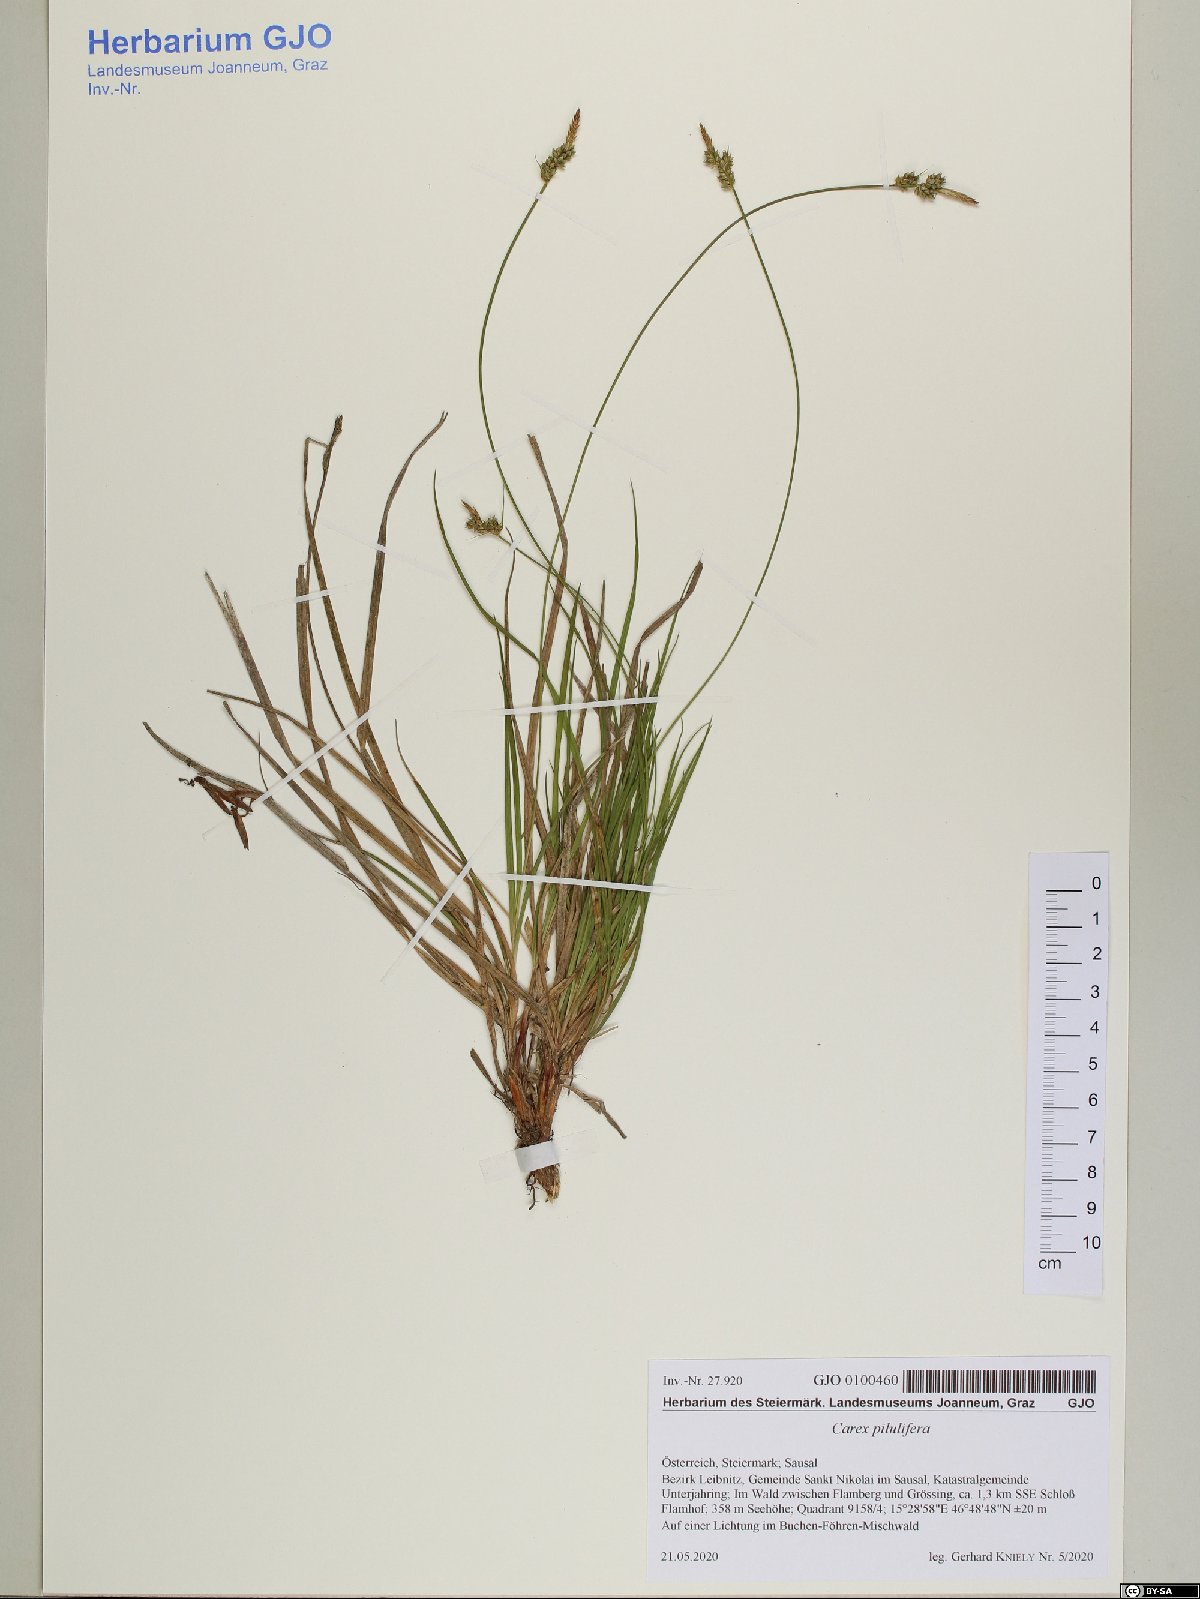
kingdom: Plantae
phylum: Tracheophyta
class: Liliopsida
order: Poales
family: Cyperaceae
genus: Carex
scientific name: Carex pilulifera
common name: Pill sedge
